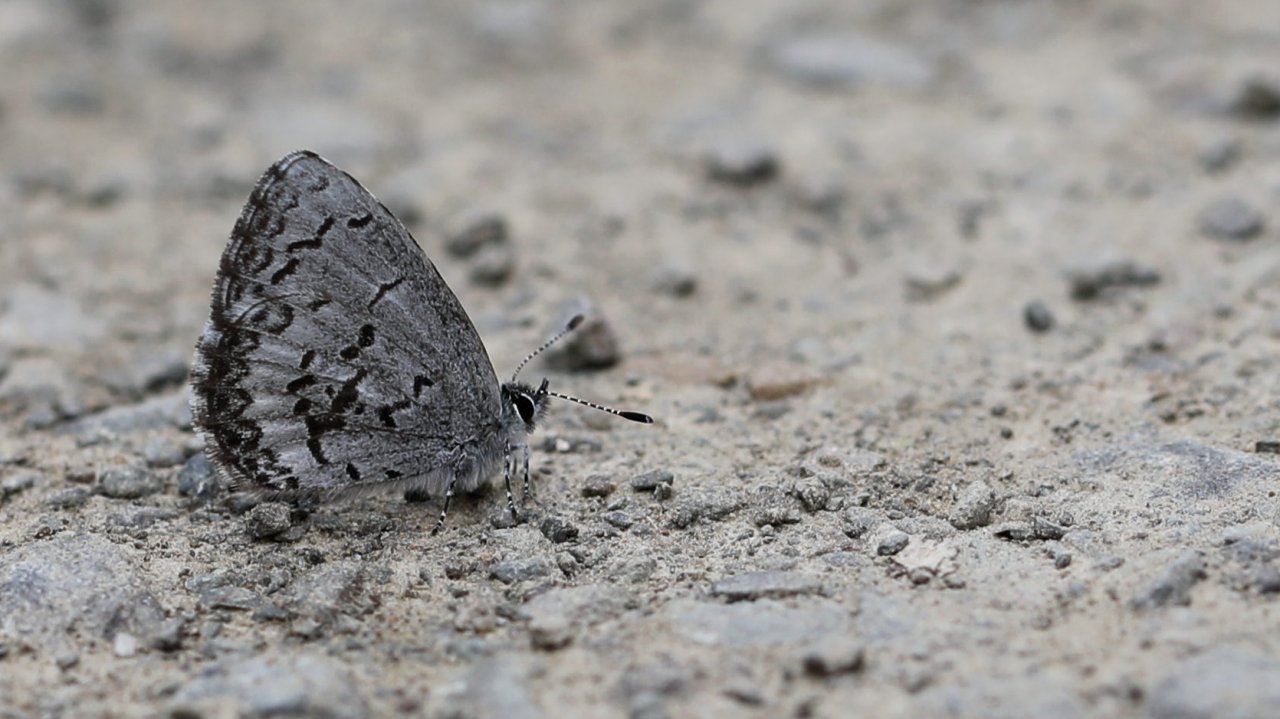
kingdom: Animalia
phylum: Arthropoda
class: Insecta
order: Lepidoptera
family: Lycaenidae
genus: Celastrina
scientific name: Celastrina lucia
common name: Northern Spring Azure
